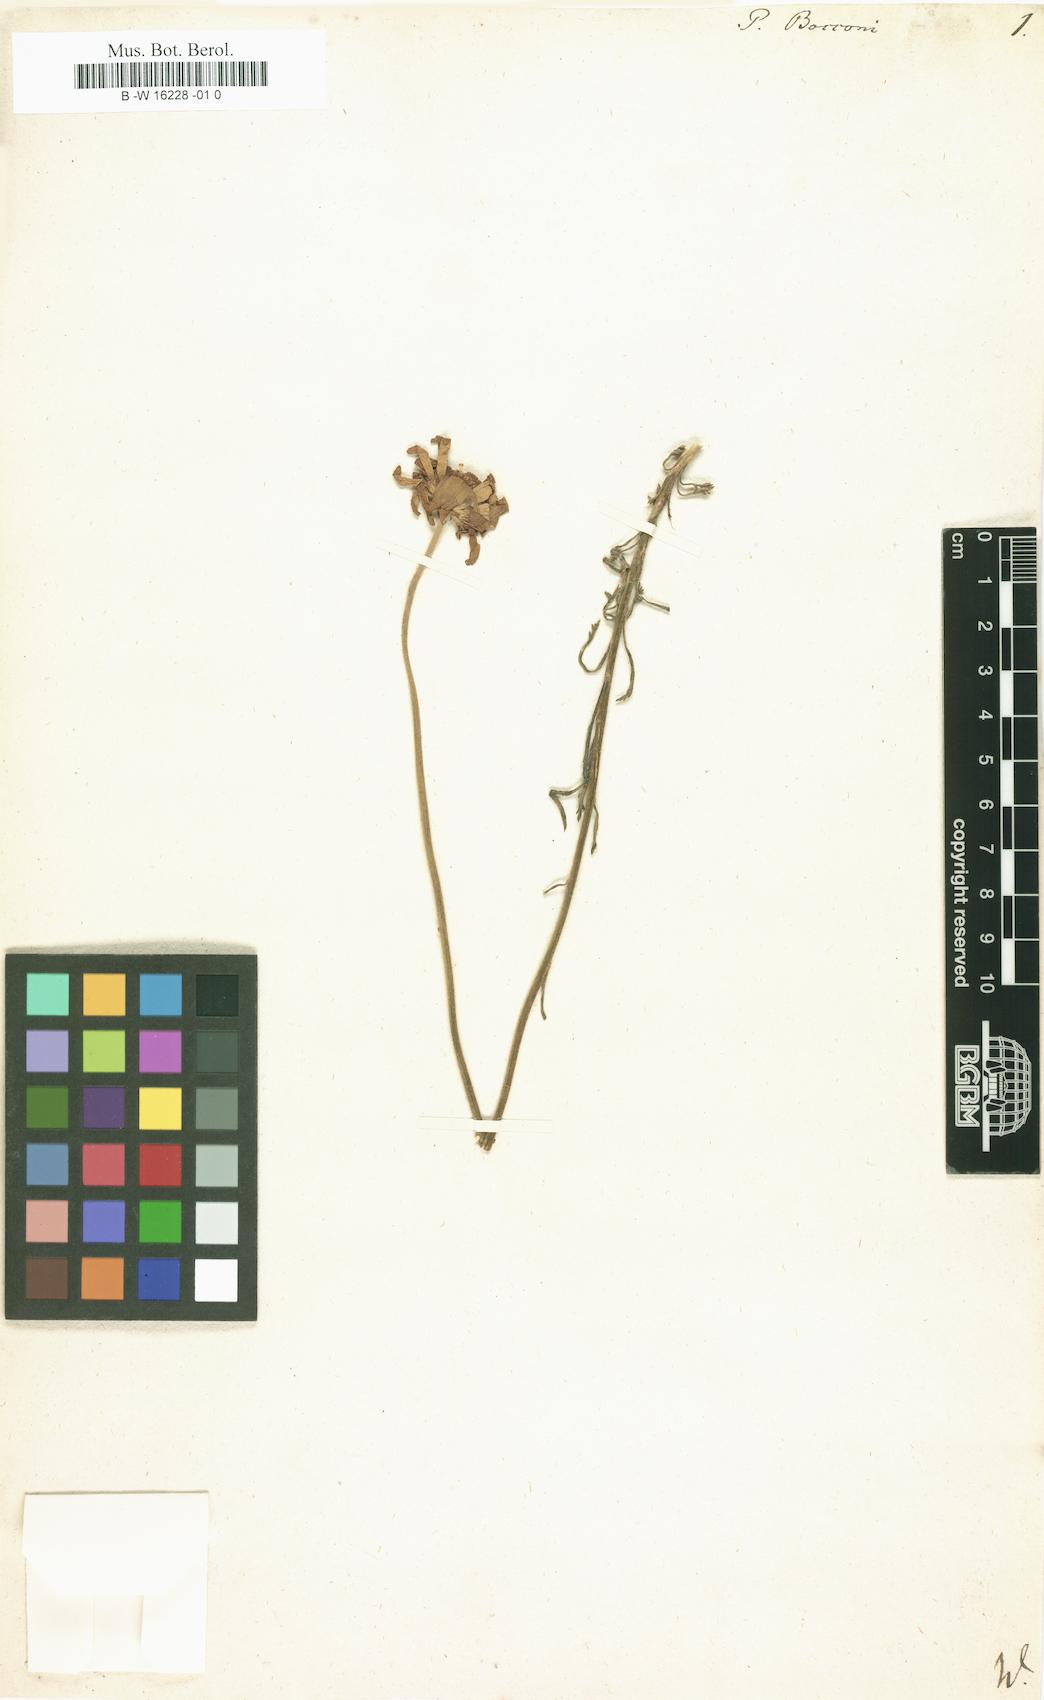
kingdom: Plantae
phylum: Tracheophyta
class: Magnoliopsida
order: Asterales
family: Asteraceae
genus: Tanacetum
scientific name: Tanacetum Pyrethrum bocconei
